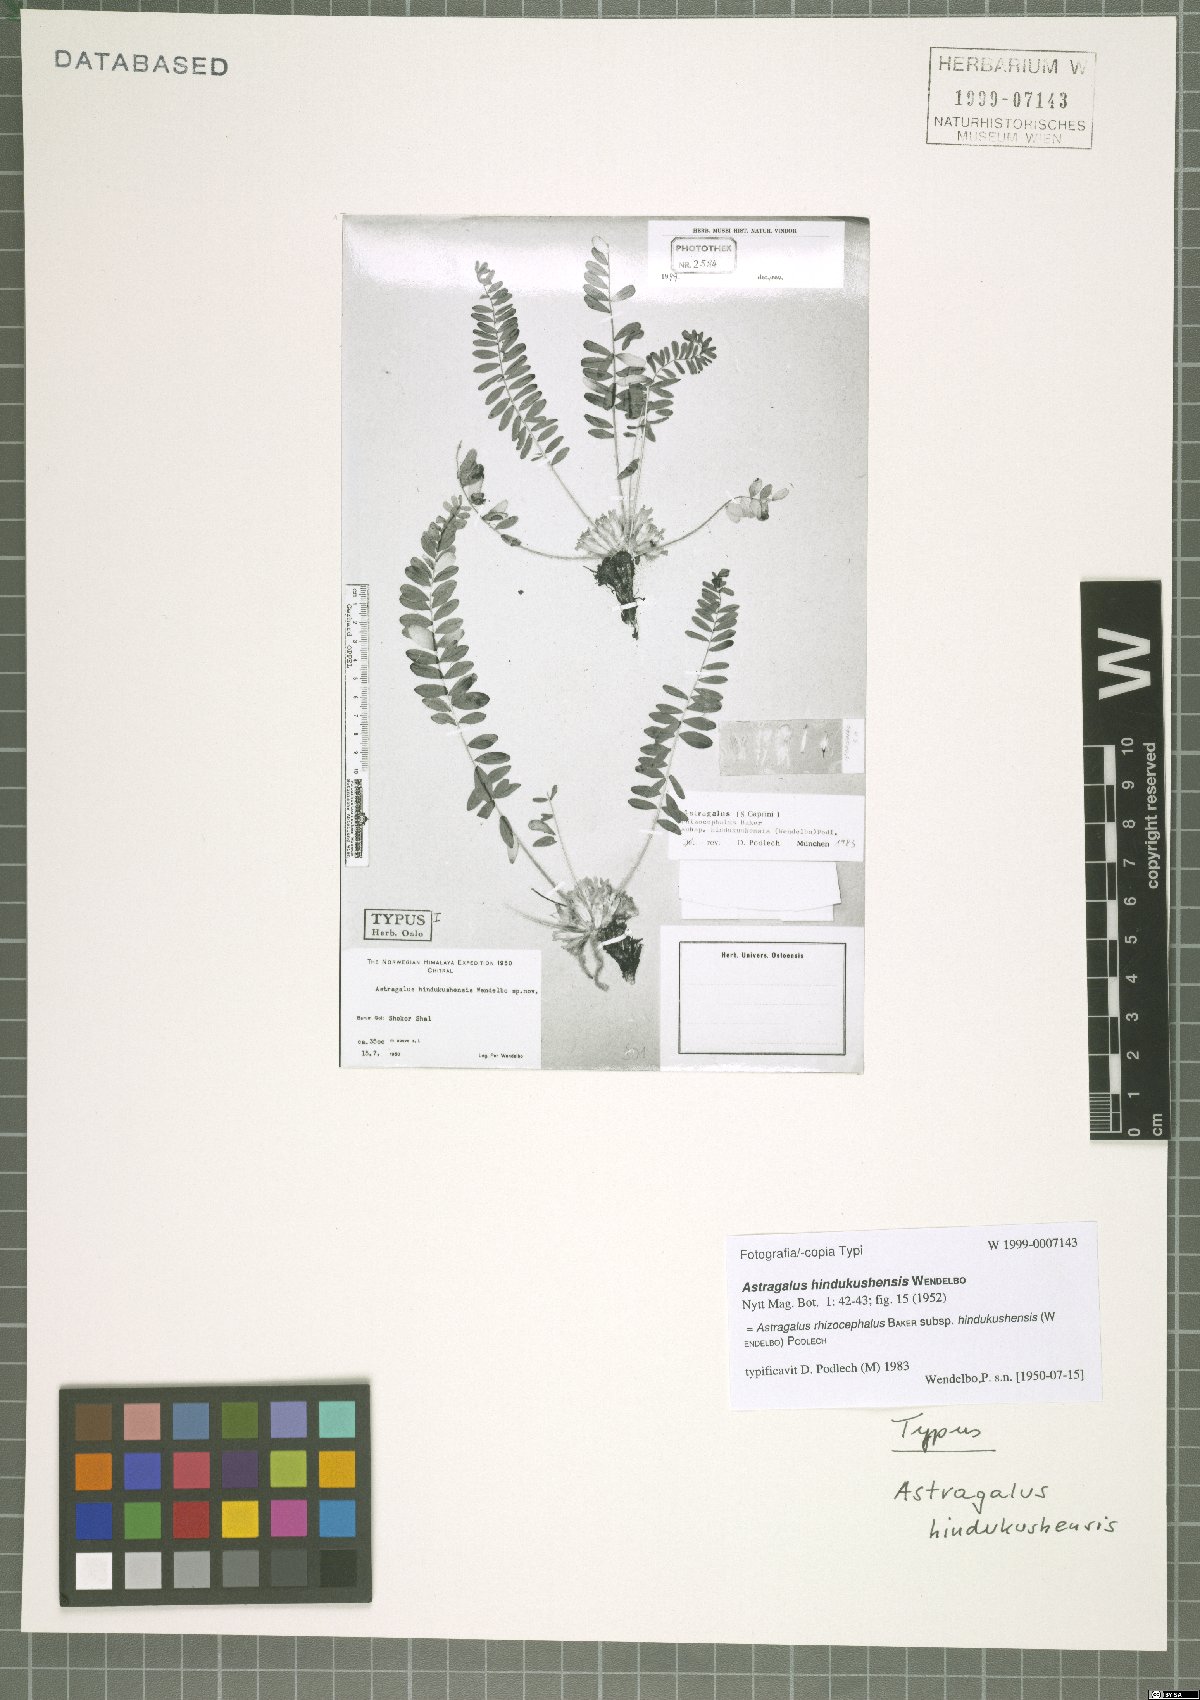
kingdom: Plantae
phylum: Tracheophyta
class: Magnoliopsida
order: Fabales
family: Fabaceae
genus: Astragalus
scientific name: Astragalus rhizocephalus
